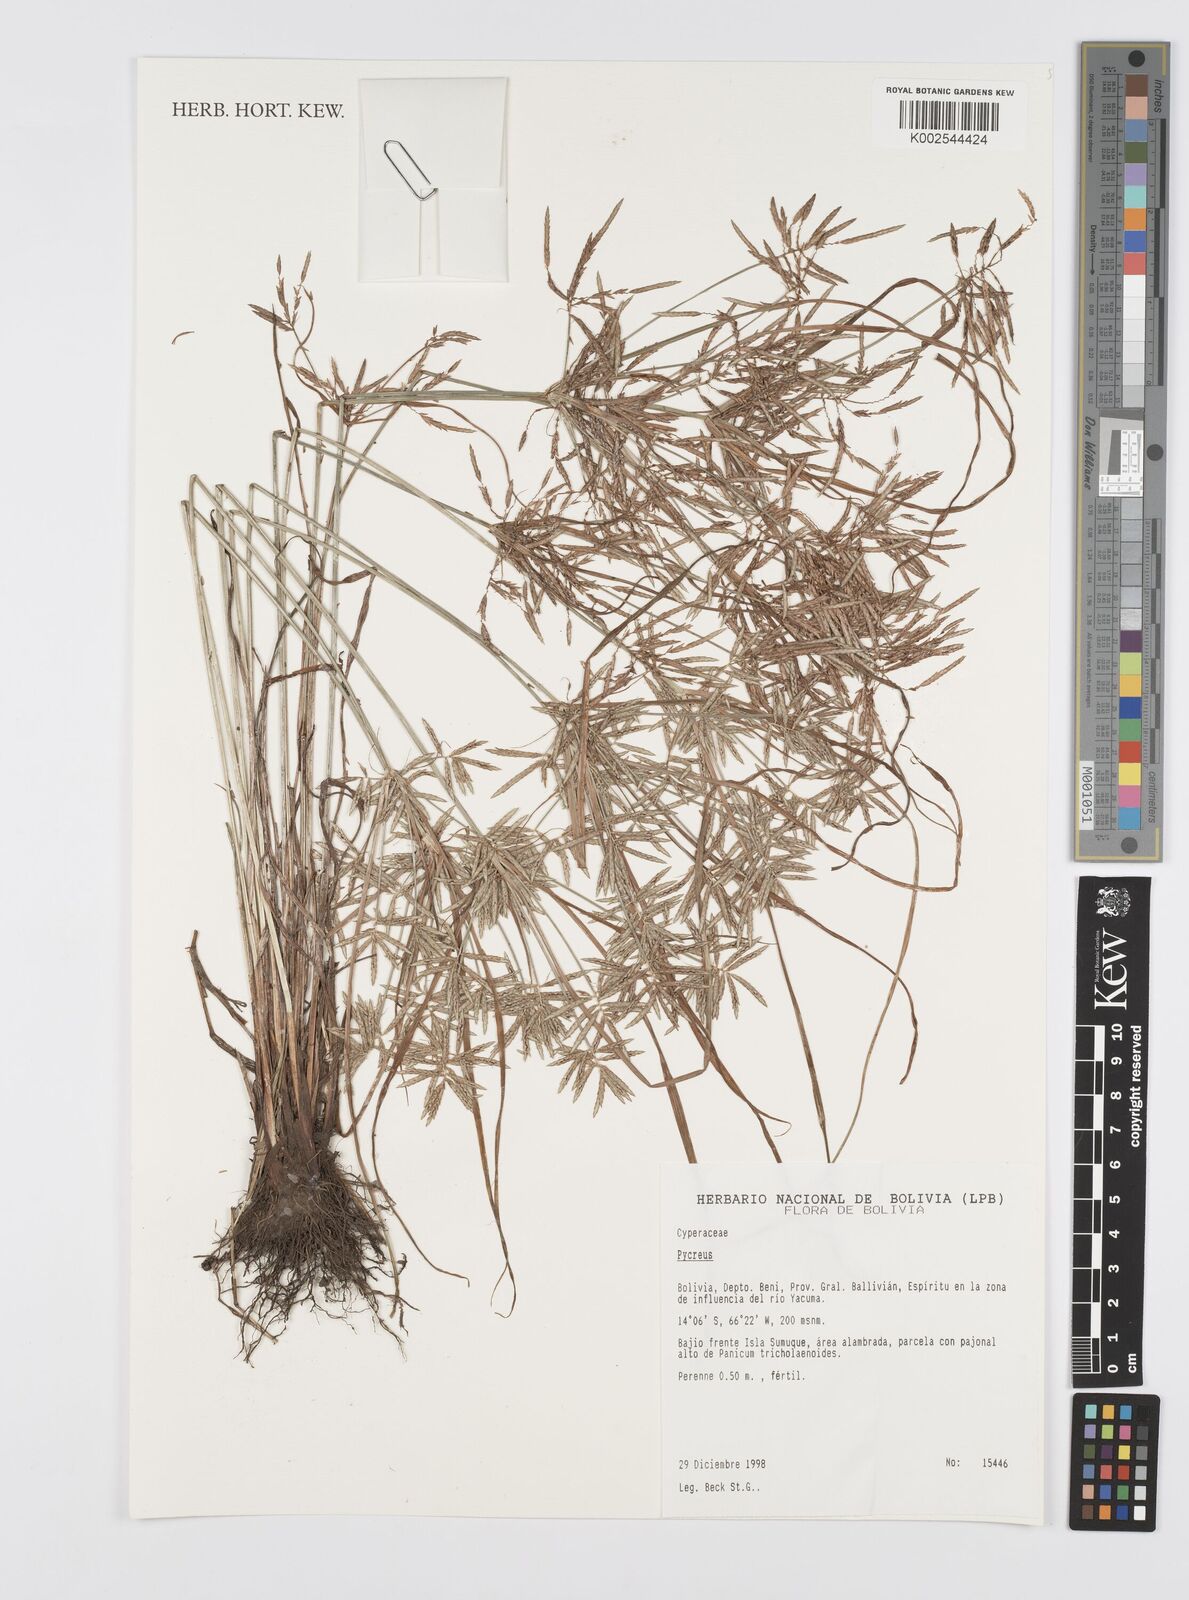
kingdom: Plantae
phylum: Tracheophyta
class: Liliopsida
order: Poales
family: Cyperaceae
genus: Cyperus
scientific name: Cyperus
